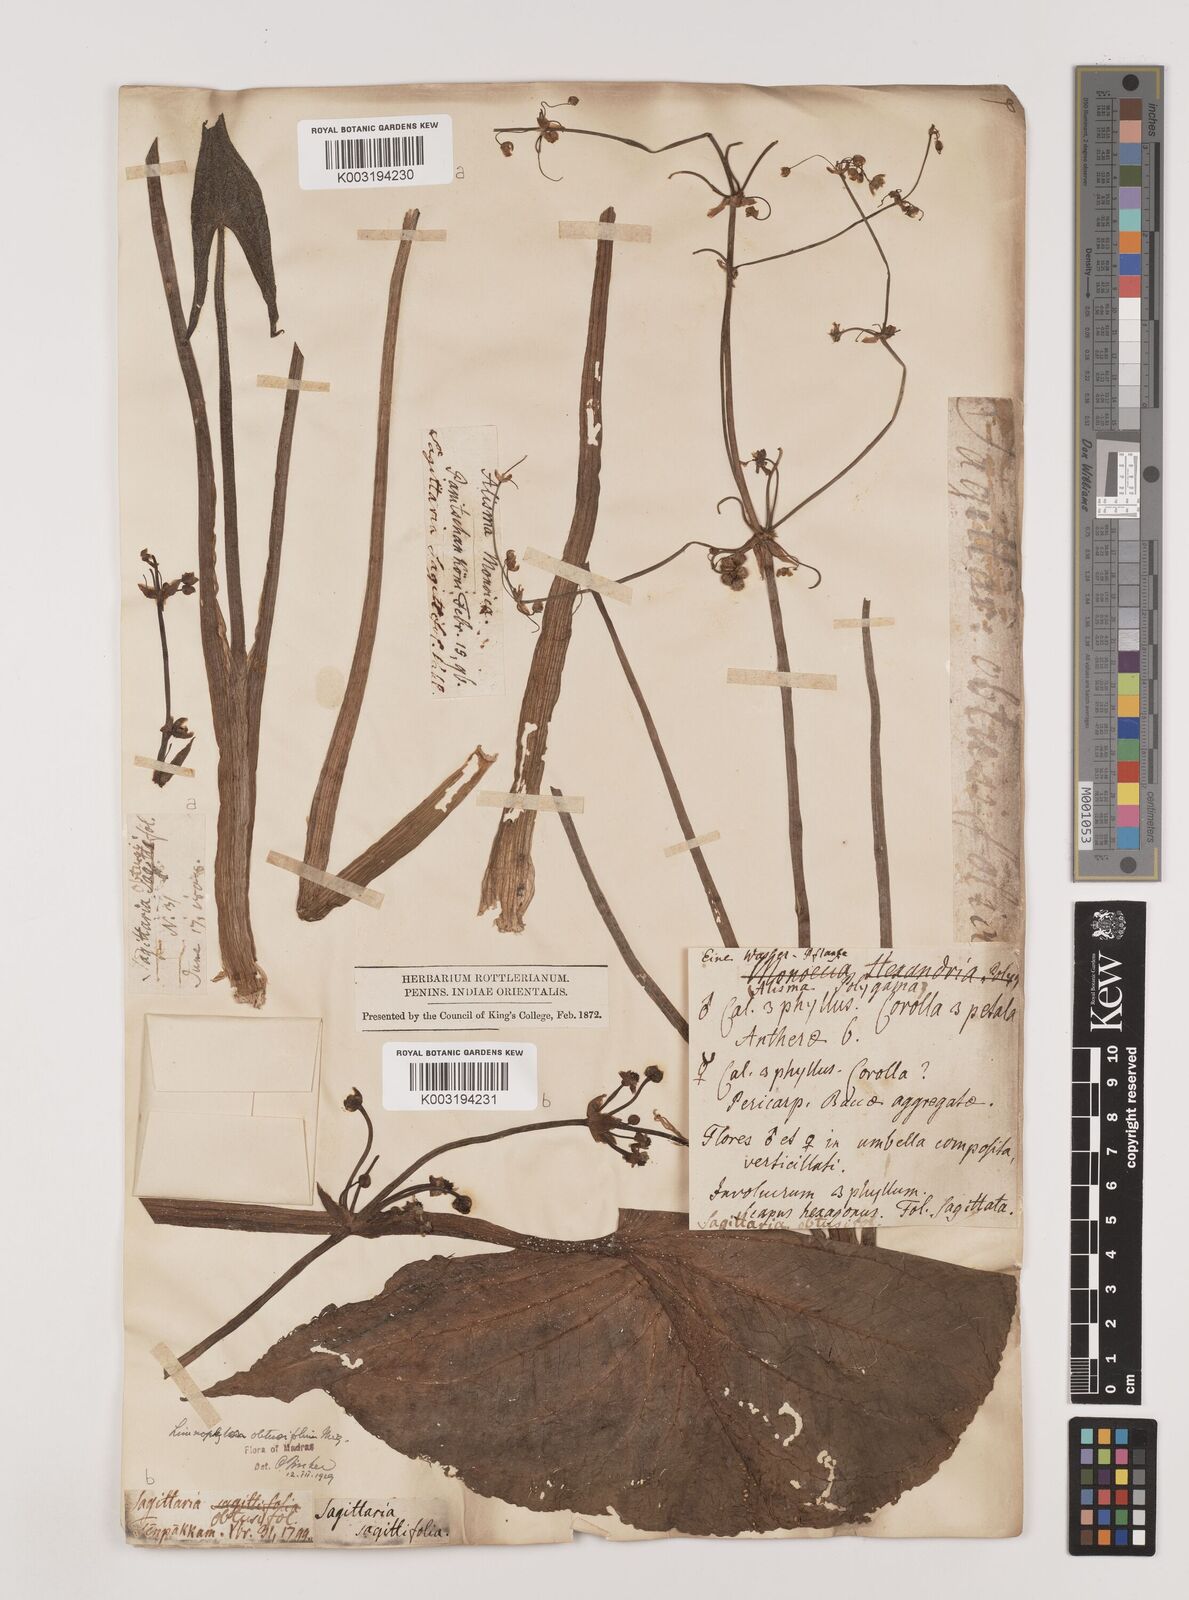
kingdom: Plantae
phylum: Tracheophyta
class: Liliopsida
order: Alismatales
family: Alismataceae
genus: Limnophyton
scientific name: Limnophyton obtusifolium
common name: Arrow head
